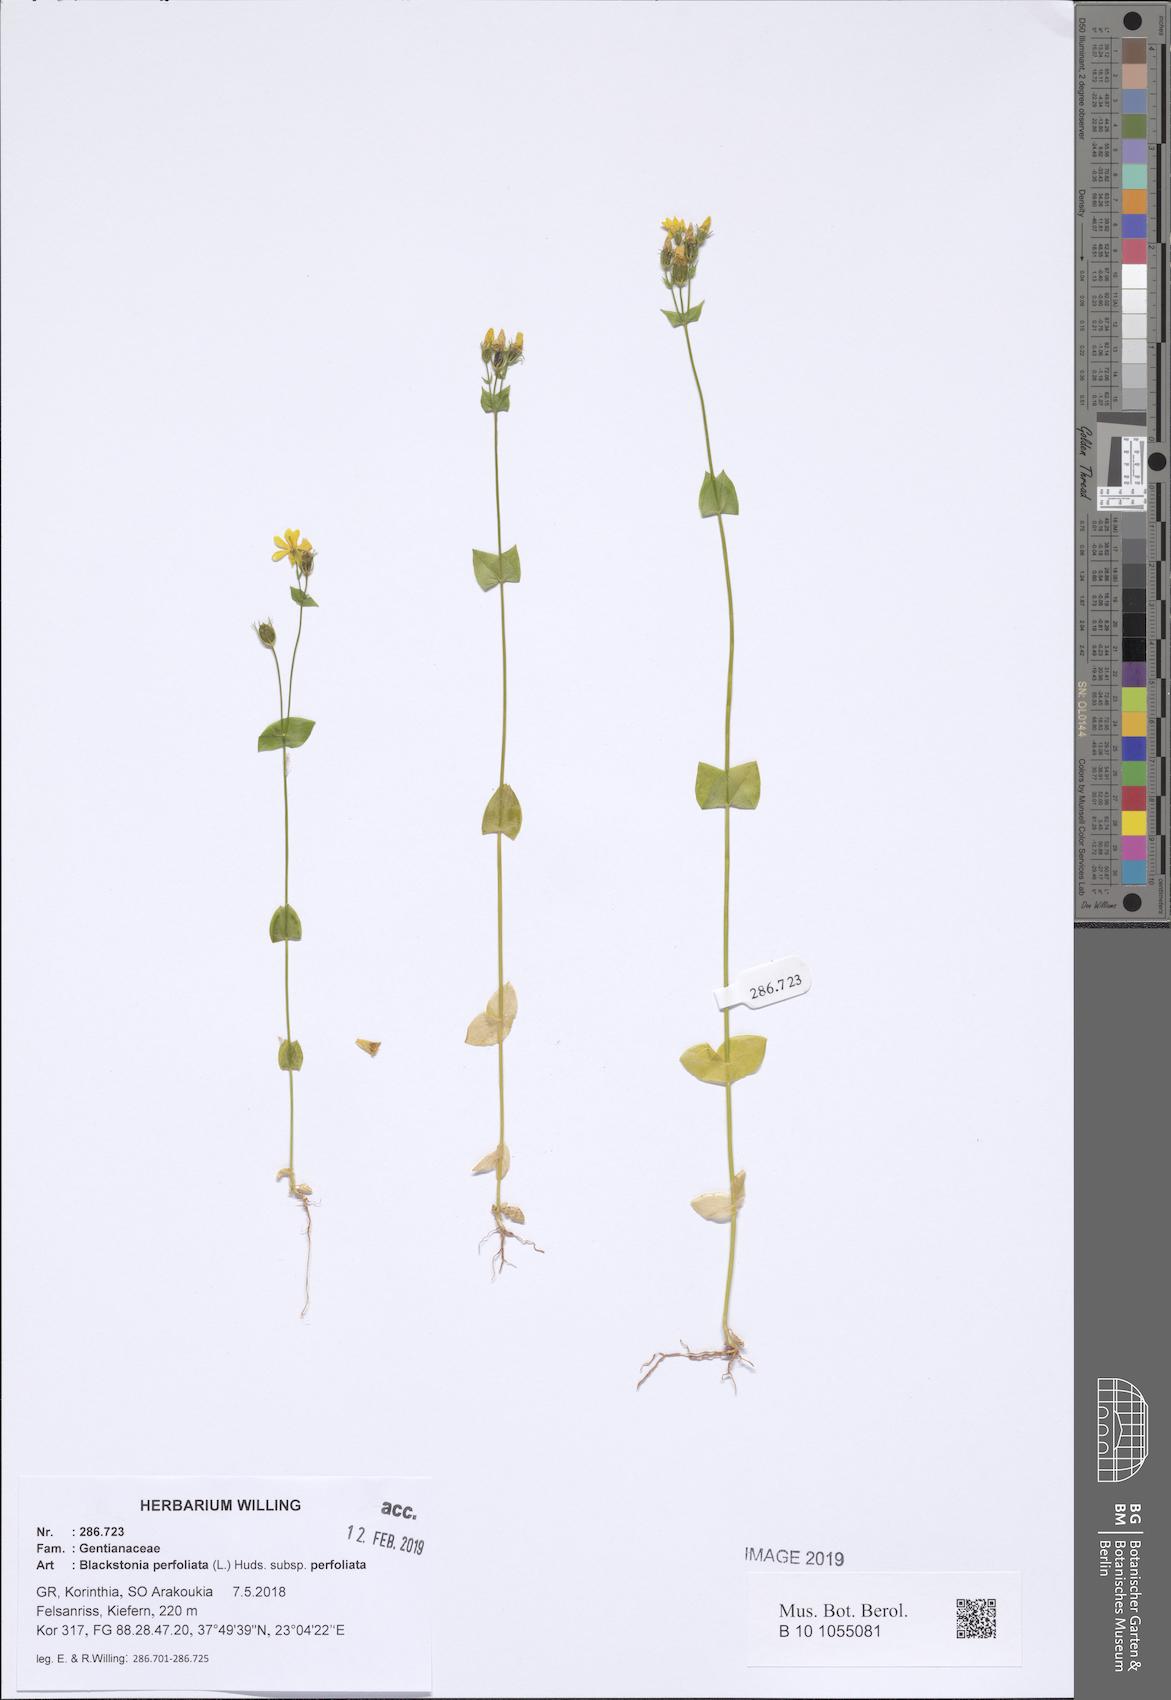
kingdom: Plantae
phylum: Tracheophyta
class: Magnoliopsida
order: Gentianales
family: Gentianaceae
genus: Blackstonia
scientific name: Blackstonia perfoliata
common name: Yellow-wort
